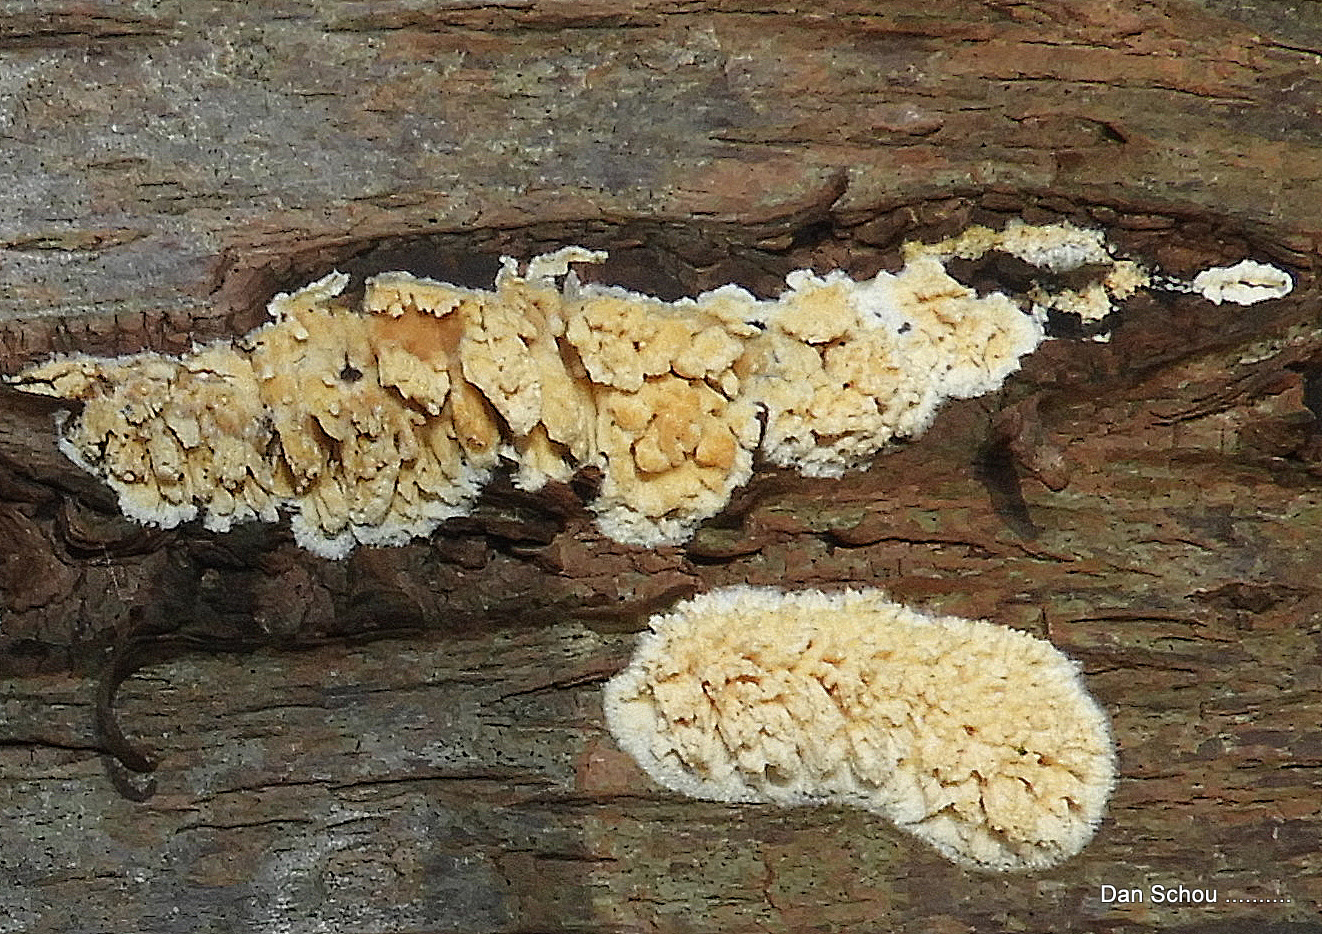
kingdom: Fungi
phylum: Basidiomycota
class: Agaricomycetes
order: Hymenochaetales
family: Schizoporaceae
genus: Xylodon
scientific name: Xylodon radula
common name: grovtandet kalkskind
